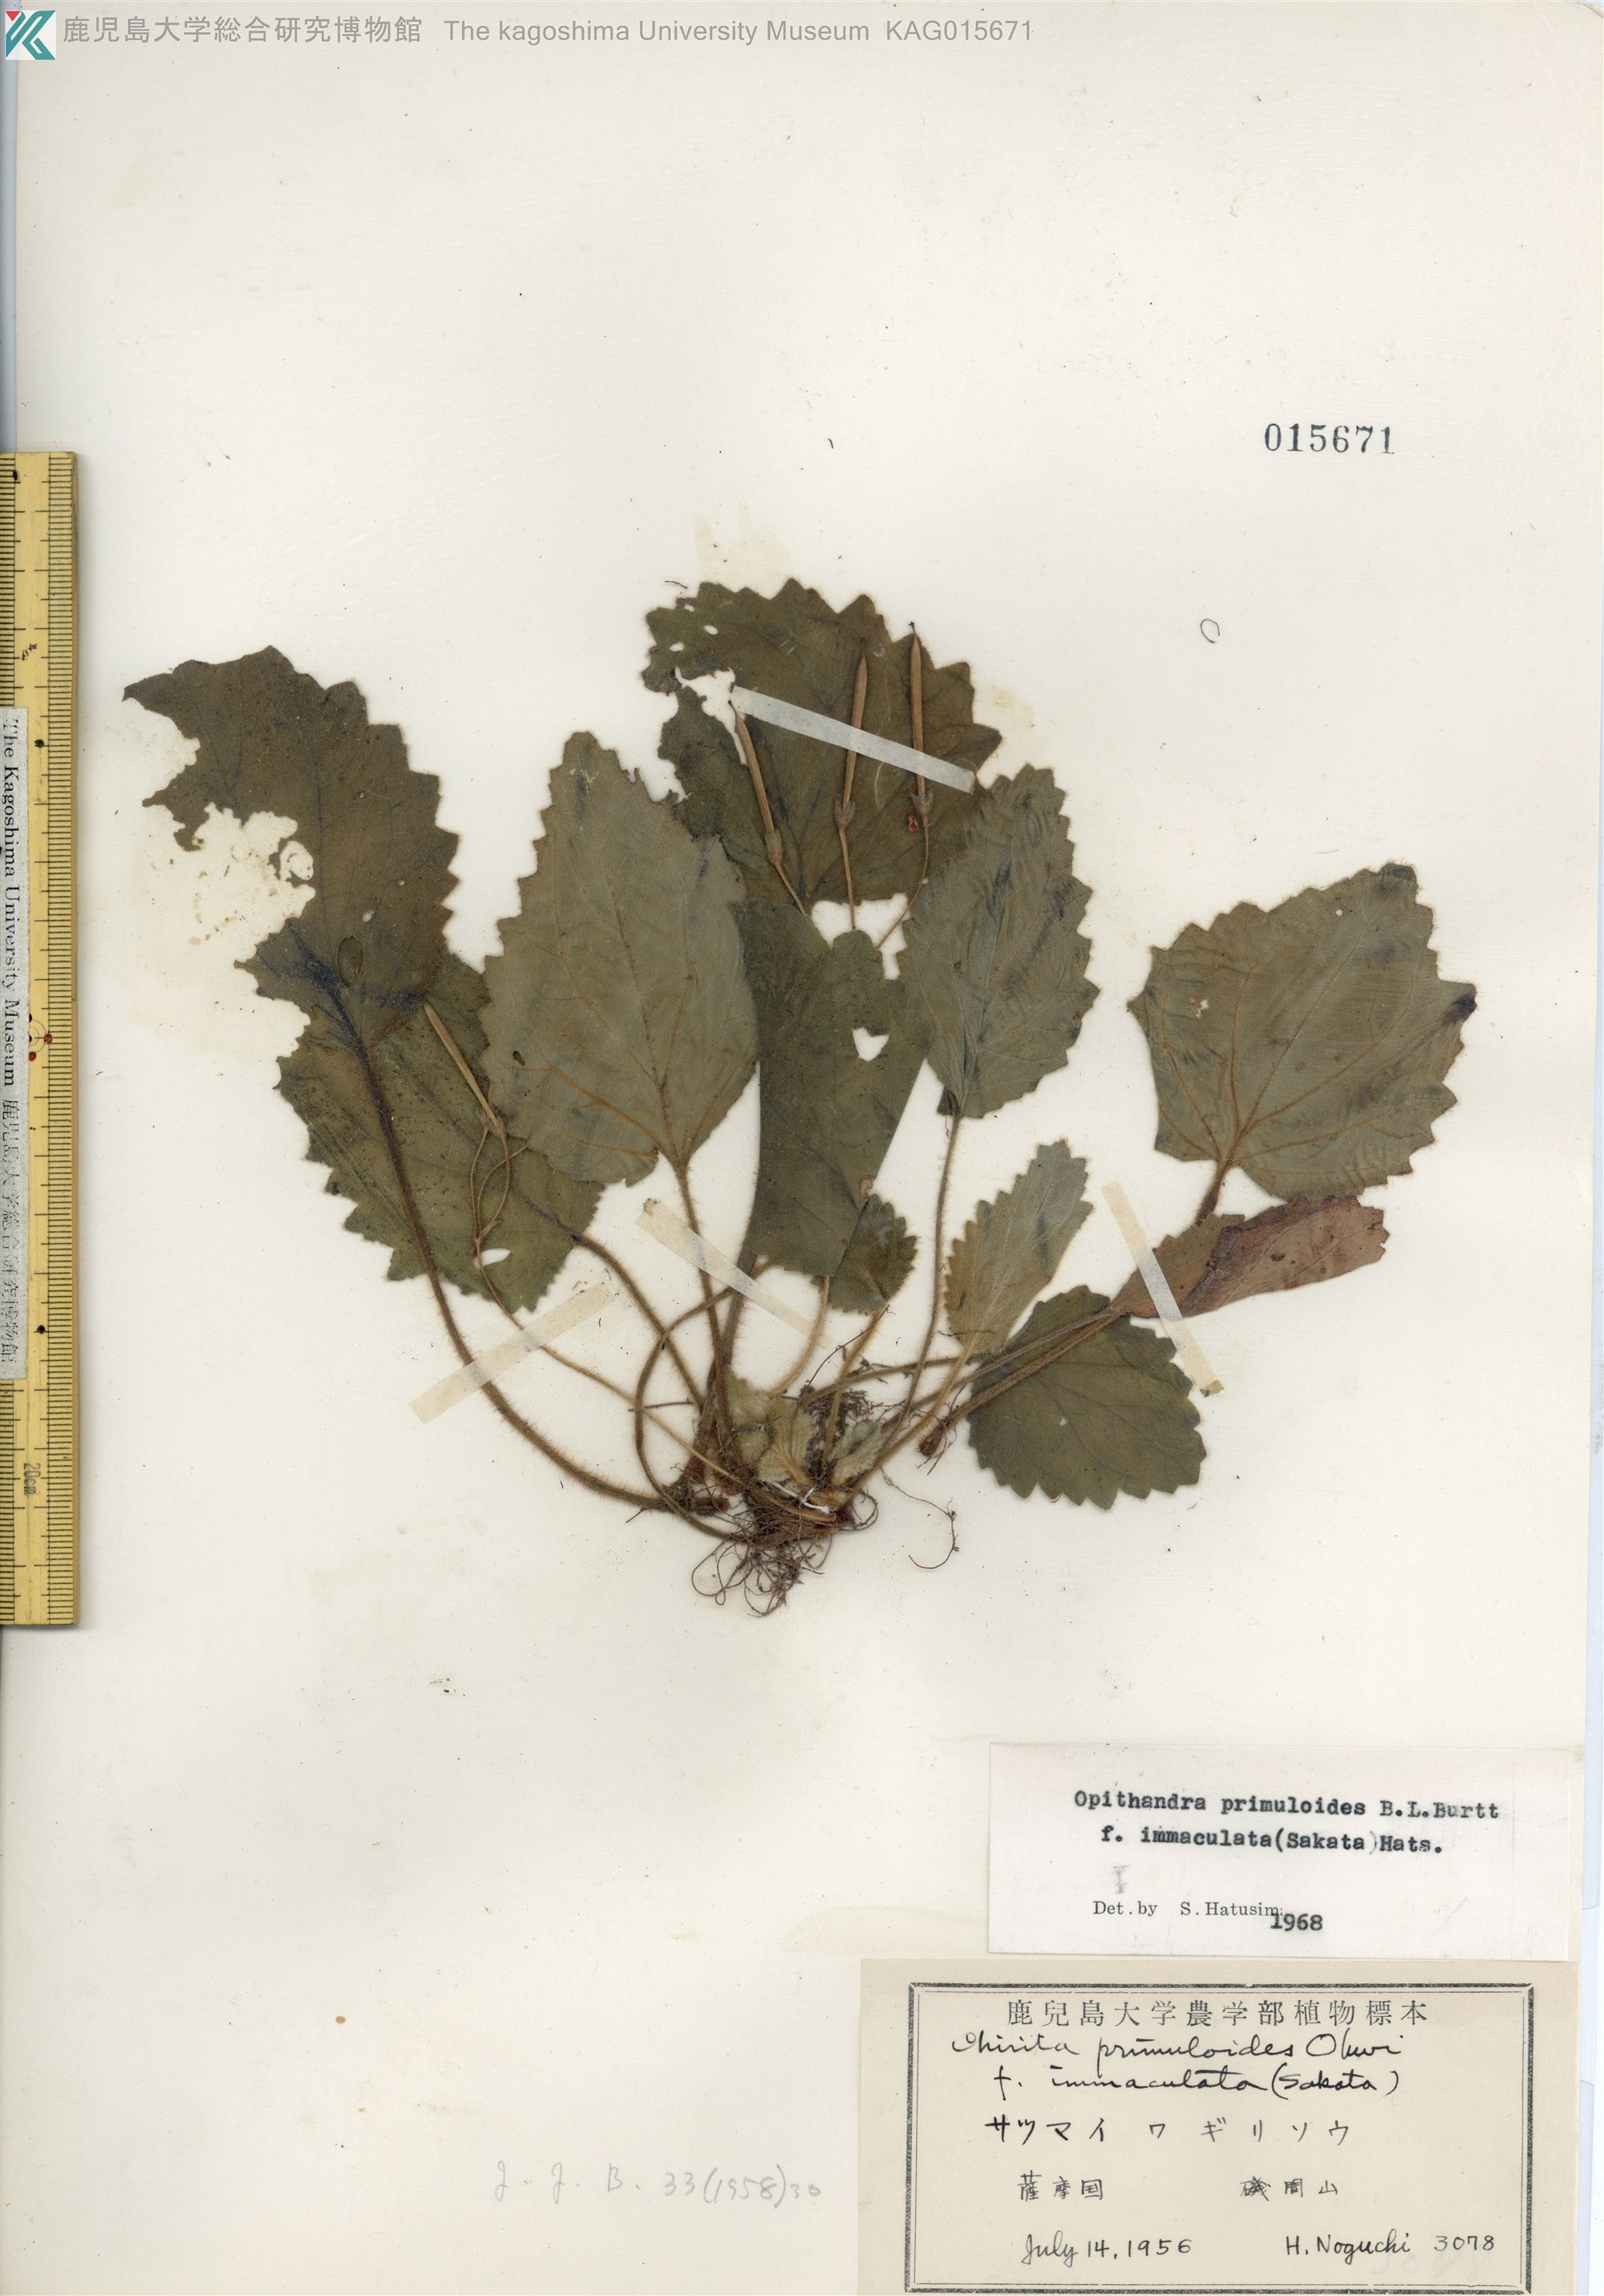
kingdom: Plantae
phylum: Tracheophyta
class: Magnoliopsida
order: Lamiales
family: Gesneriaceae
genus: Oreocharis
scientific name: Oreocharis primuloides
